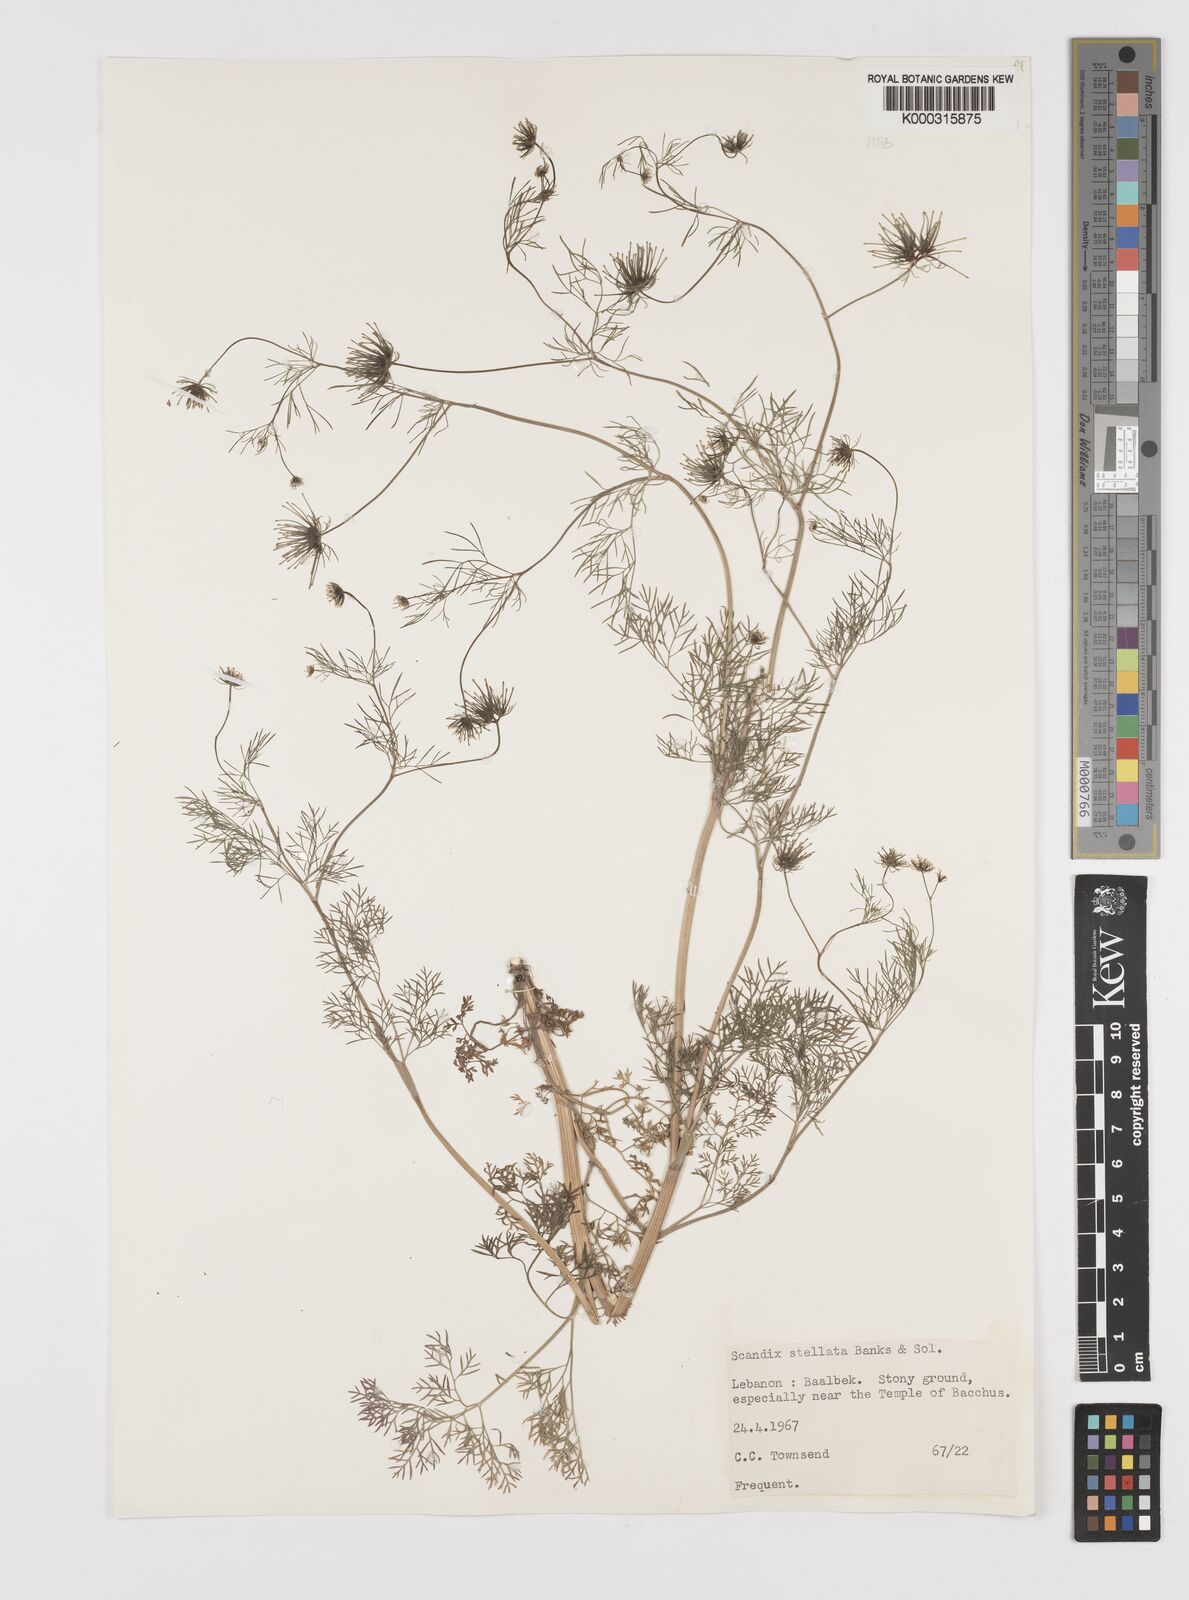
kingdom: Plantae
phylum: Tracheophyta
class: Magnoliopsida
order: Apiales
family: Apiaceae
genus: Scandix
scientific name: Scandix stellata
